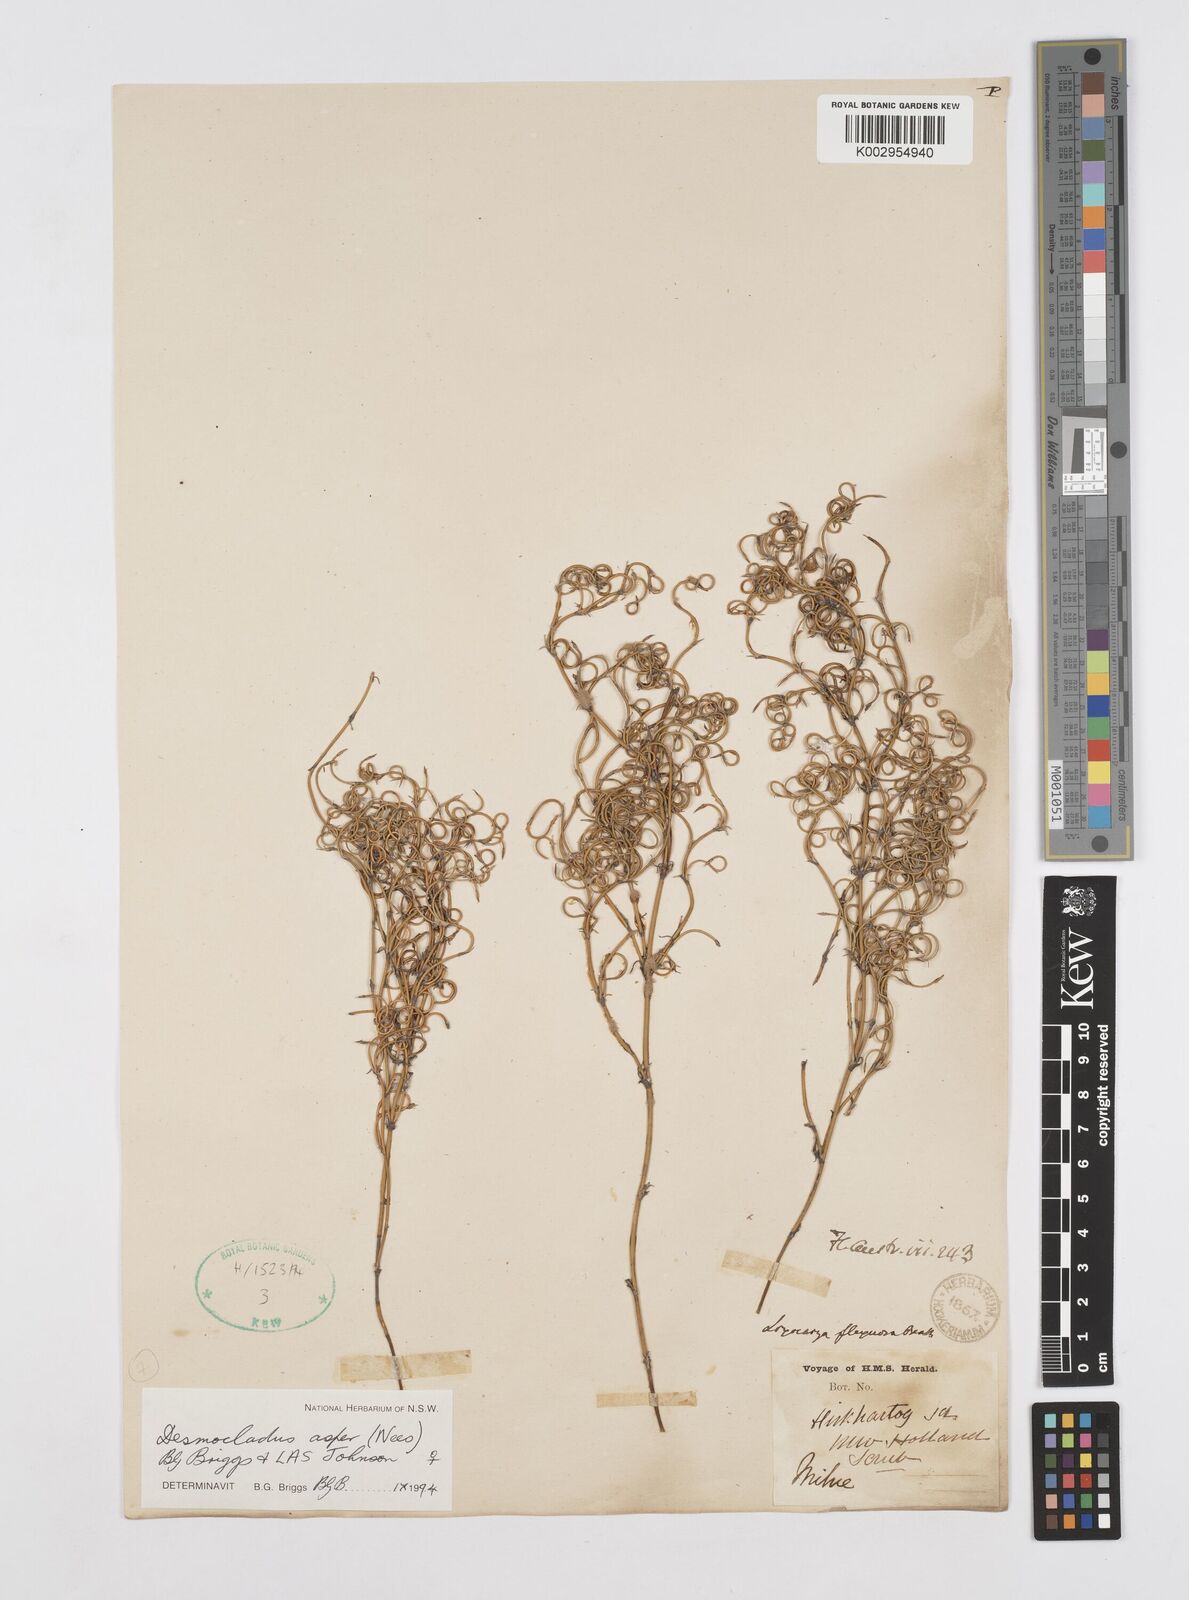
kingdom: Plantae
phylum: Tracheophyta
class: Liliopsida
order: Poales
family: Restionaceae
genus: Desmocladus
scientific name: Desmocladus asper
